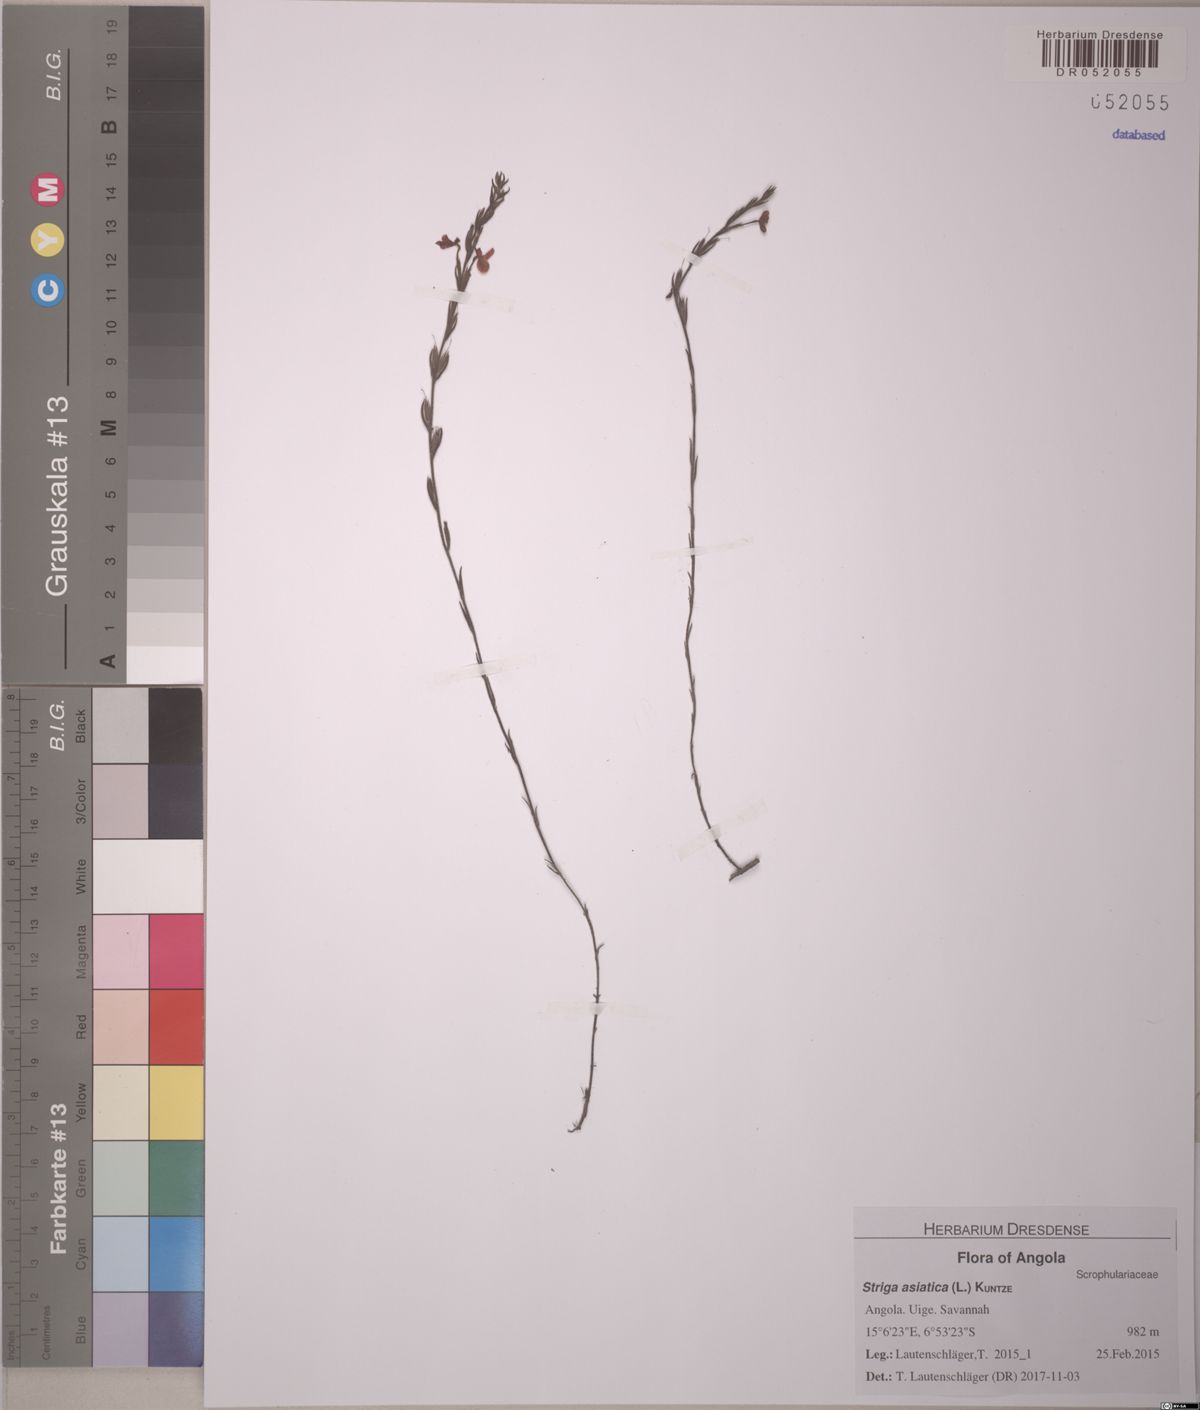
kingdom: Plantae
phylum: Tracheophyta
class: Magnoliopsida
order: Lamiales
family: Orobanchaceae
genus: Striga
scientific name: Striga asiatica
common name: Asiatic witchweed
